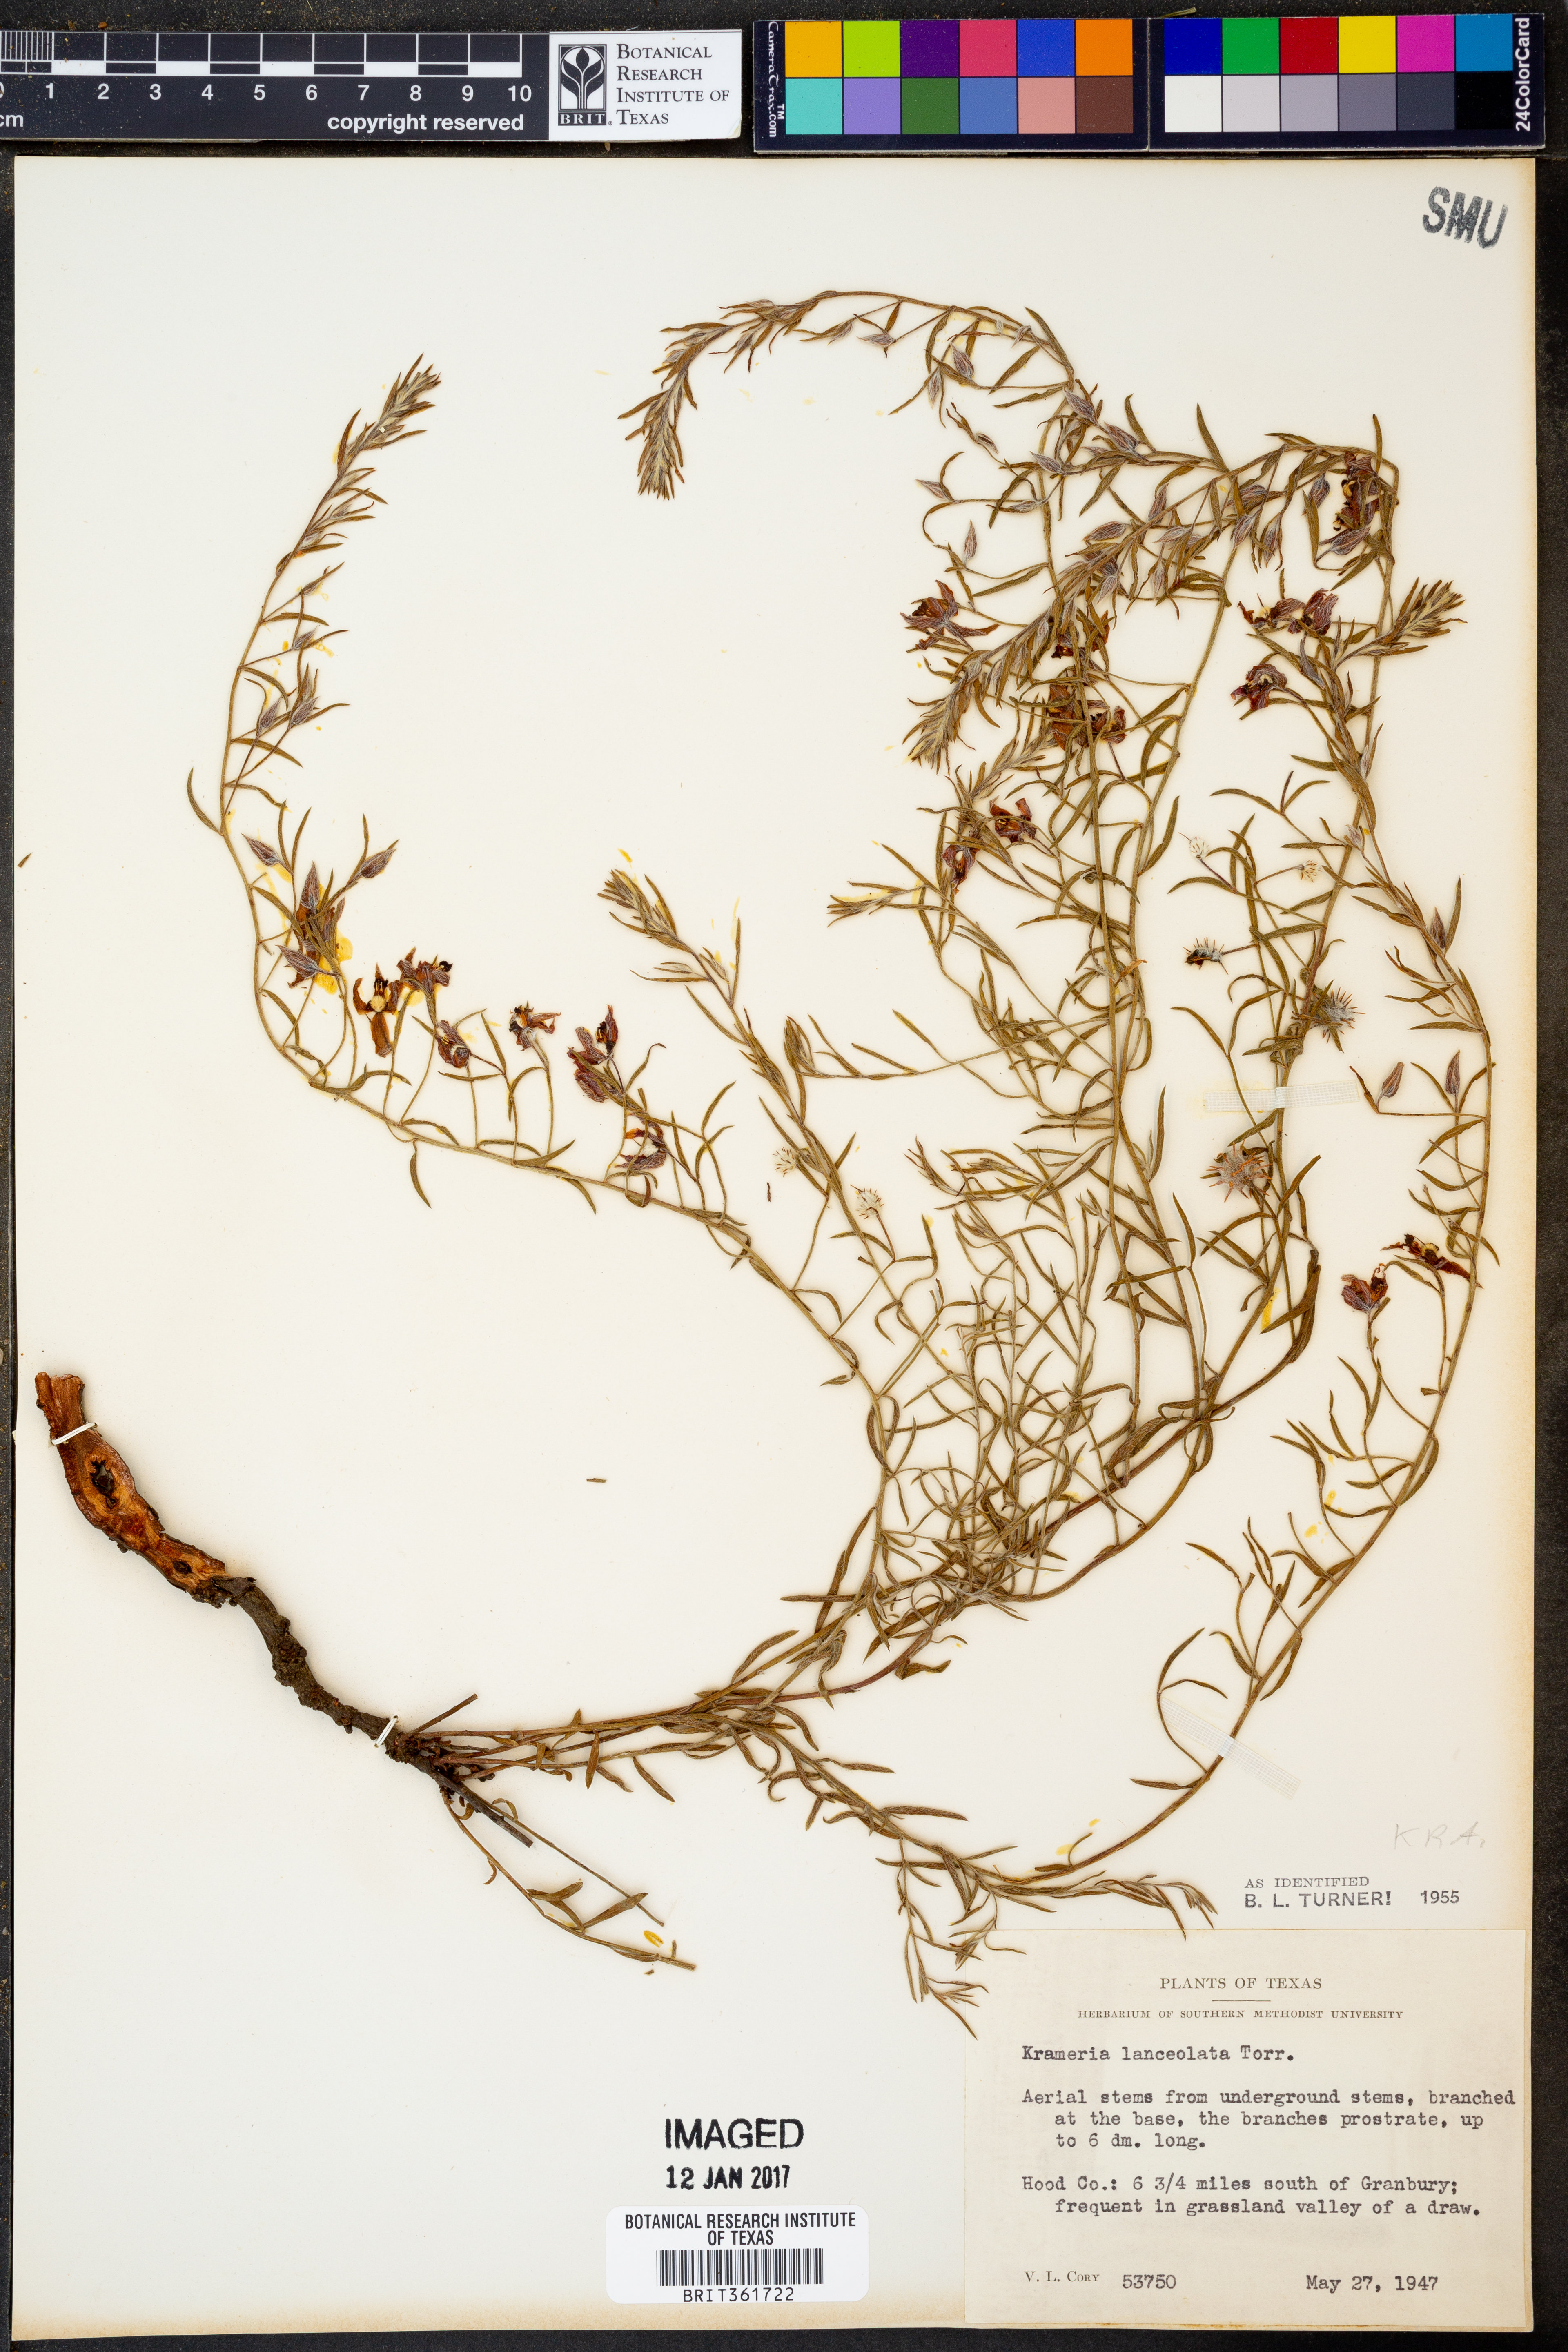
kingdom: Plantae
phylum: Tracheophyta
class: Magnoliopsida
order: Zygophyllales
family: Krameriaceae
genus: Krameria
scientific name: Krameria lanceolata
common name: Ratany
